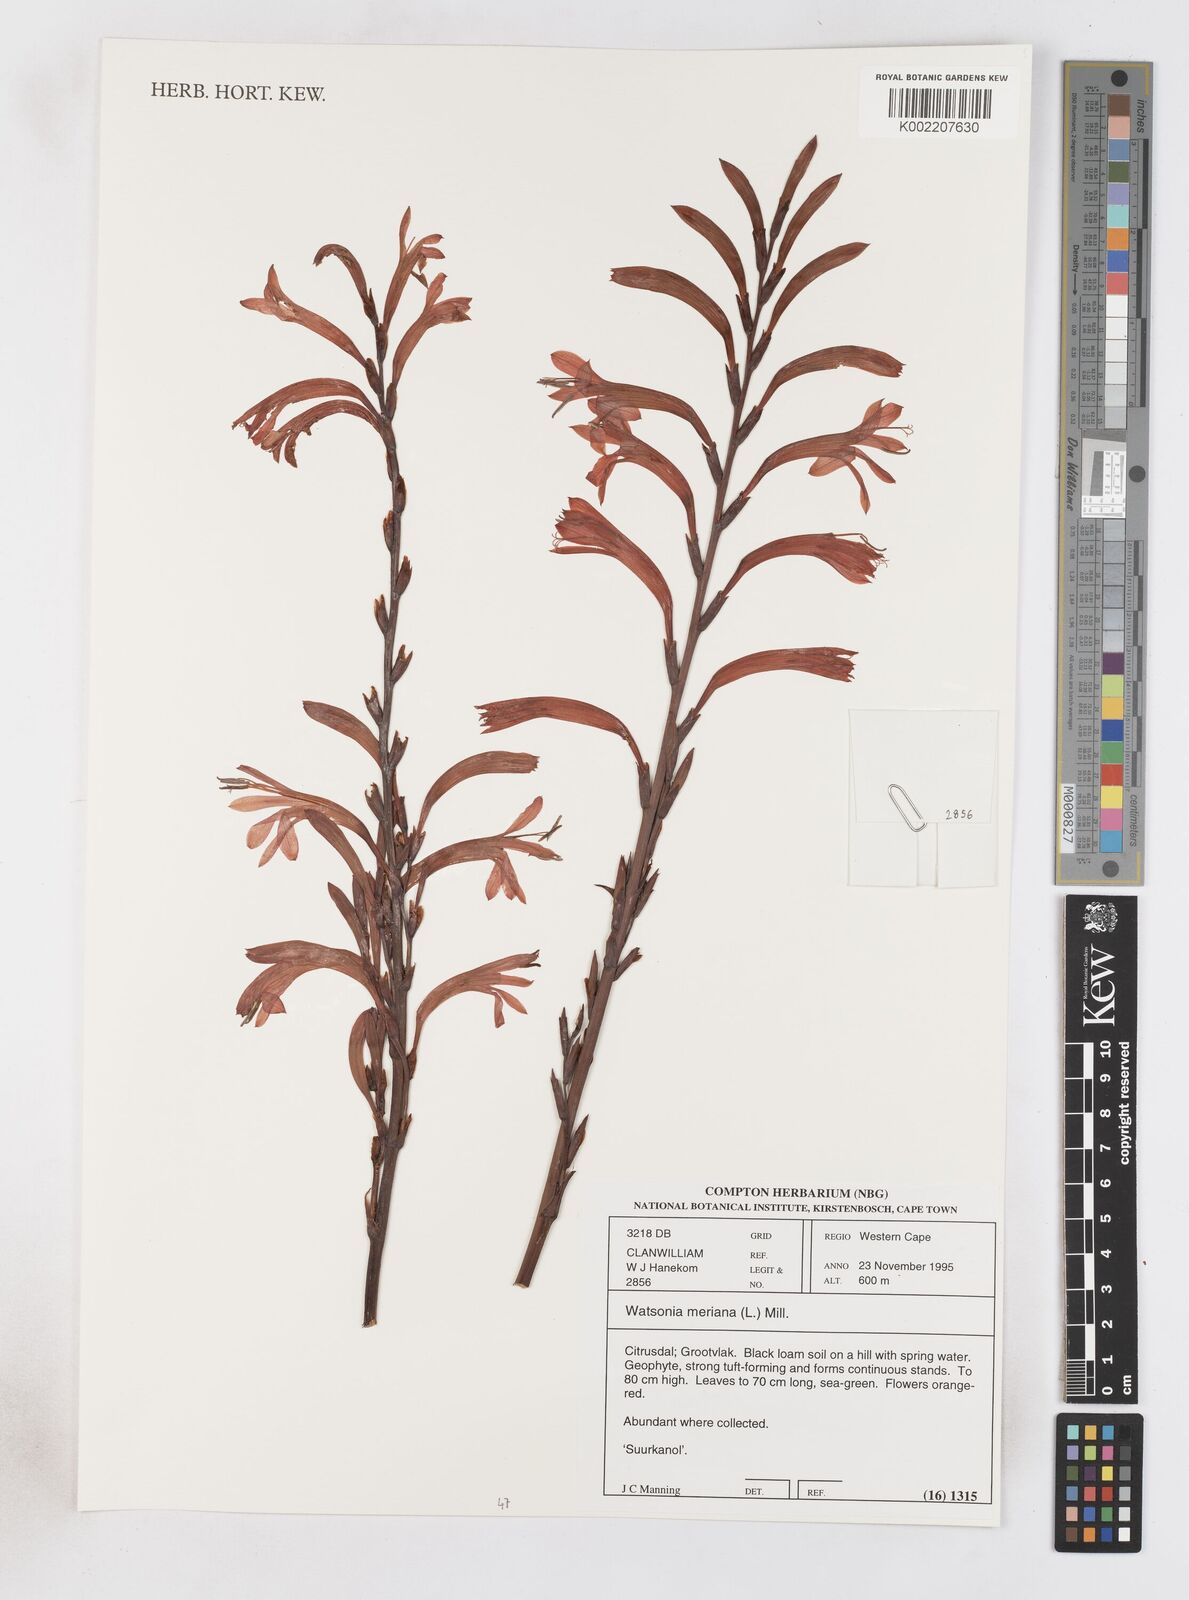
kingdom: Plantae
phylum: Tracheophyta
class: Liliopsida
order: Asparagales
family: Iridaceae
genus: Watsonia
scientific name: Watsonia meriana
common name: Bulbil bugle-lily
